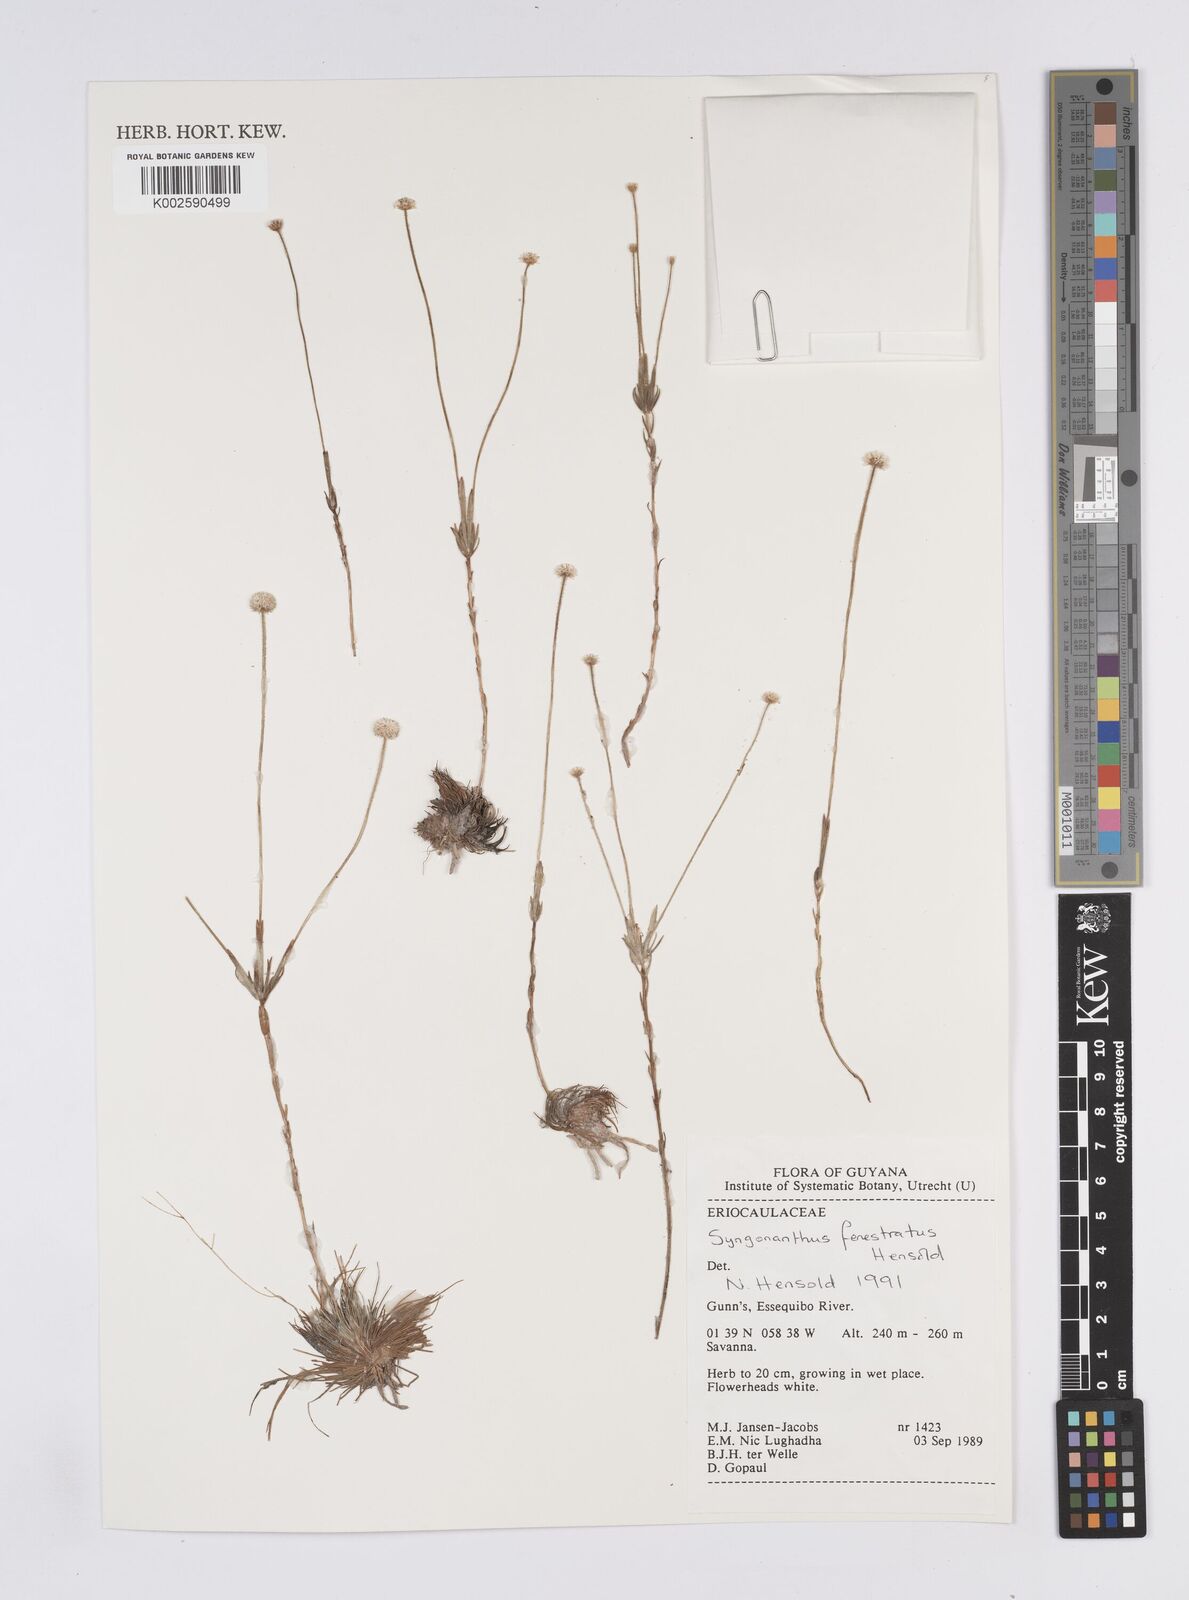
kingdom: Plantae
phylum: Tracheophyta
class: Liliopsida
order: Poales
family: Eriocaulaceae
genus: Syngonanthus
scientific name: Syngonanthus fenestratus
